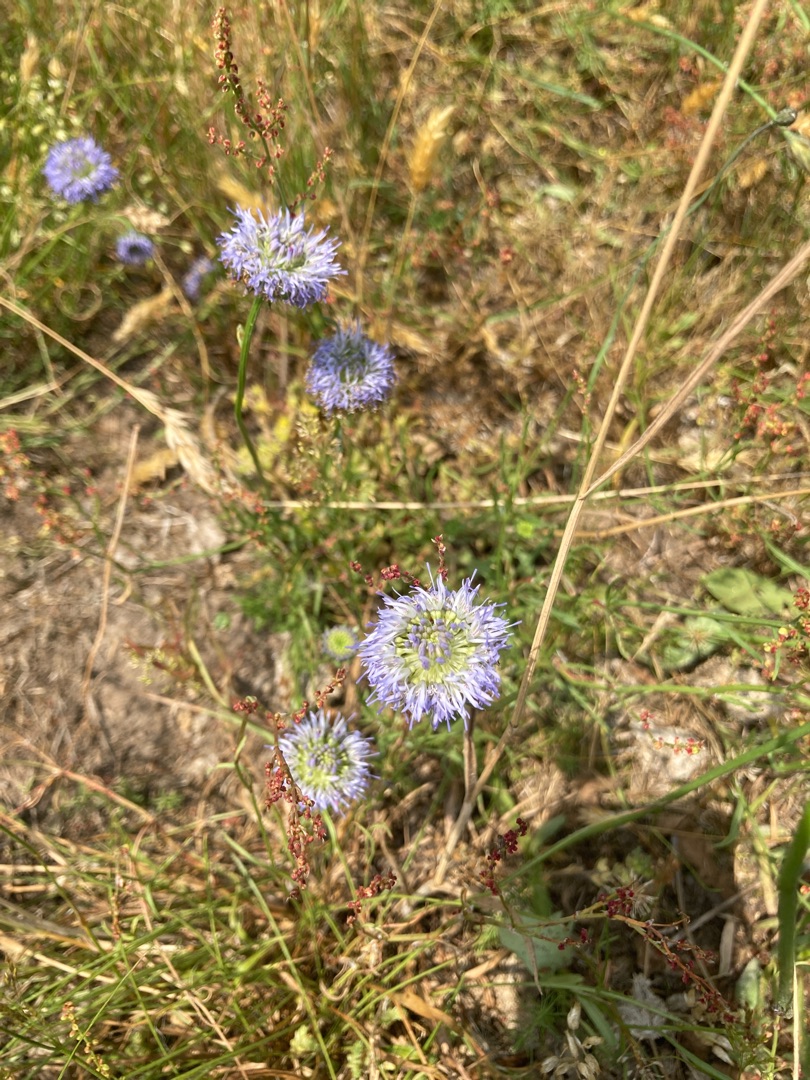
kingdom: Plantae
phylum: Tracheophyta
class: Magnoliopsida
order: Asterales
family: Campanulaceae
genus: Jasione
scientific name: Jasione montana
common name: Blåmunke
